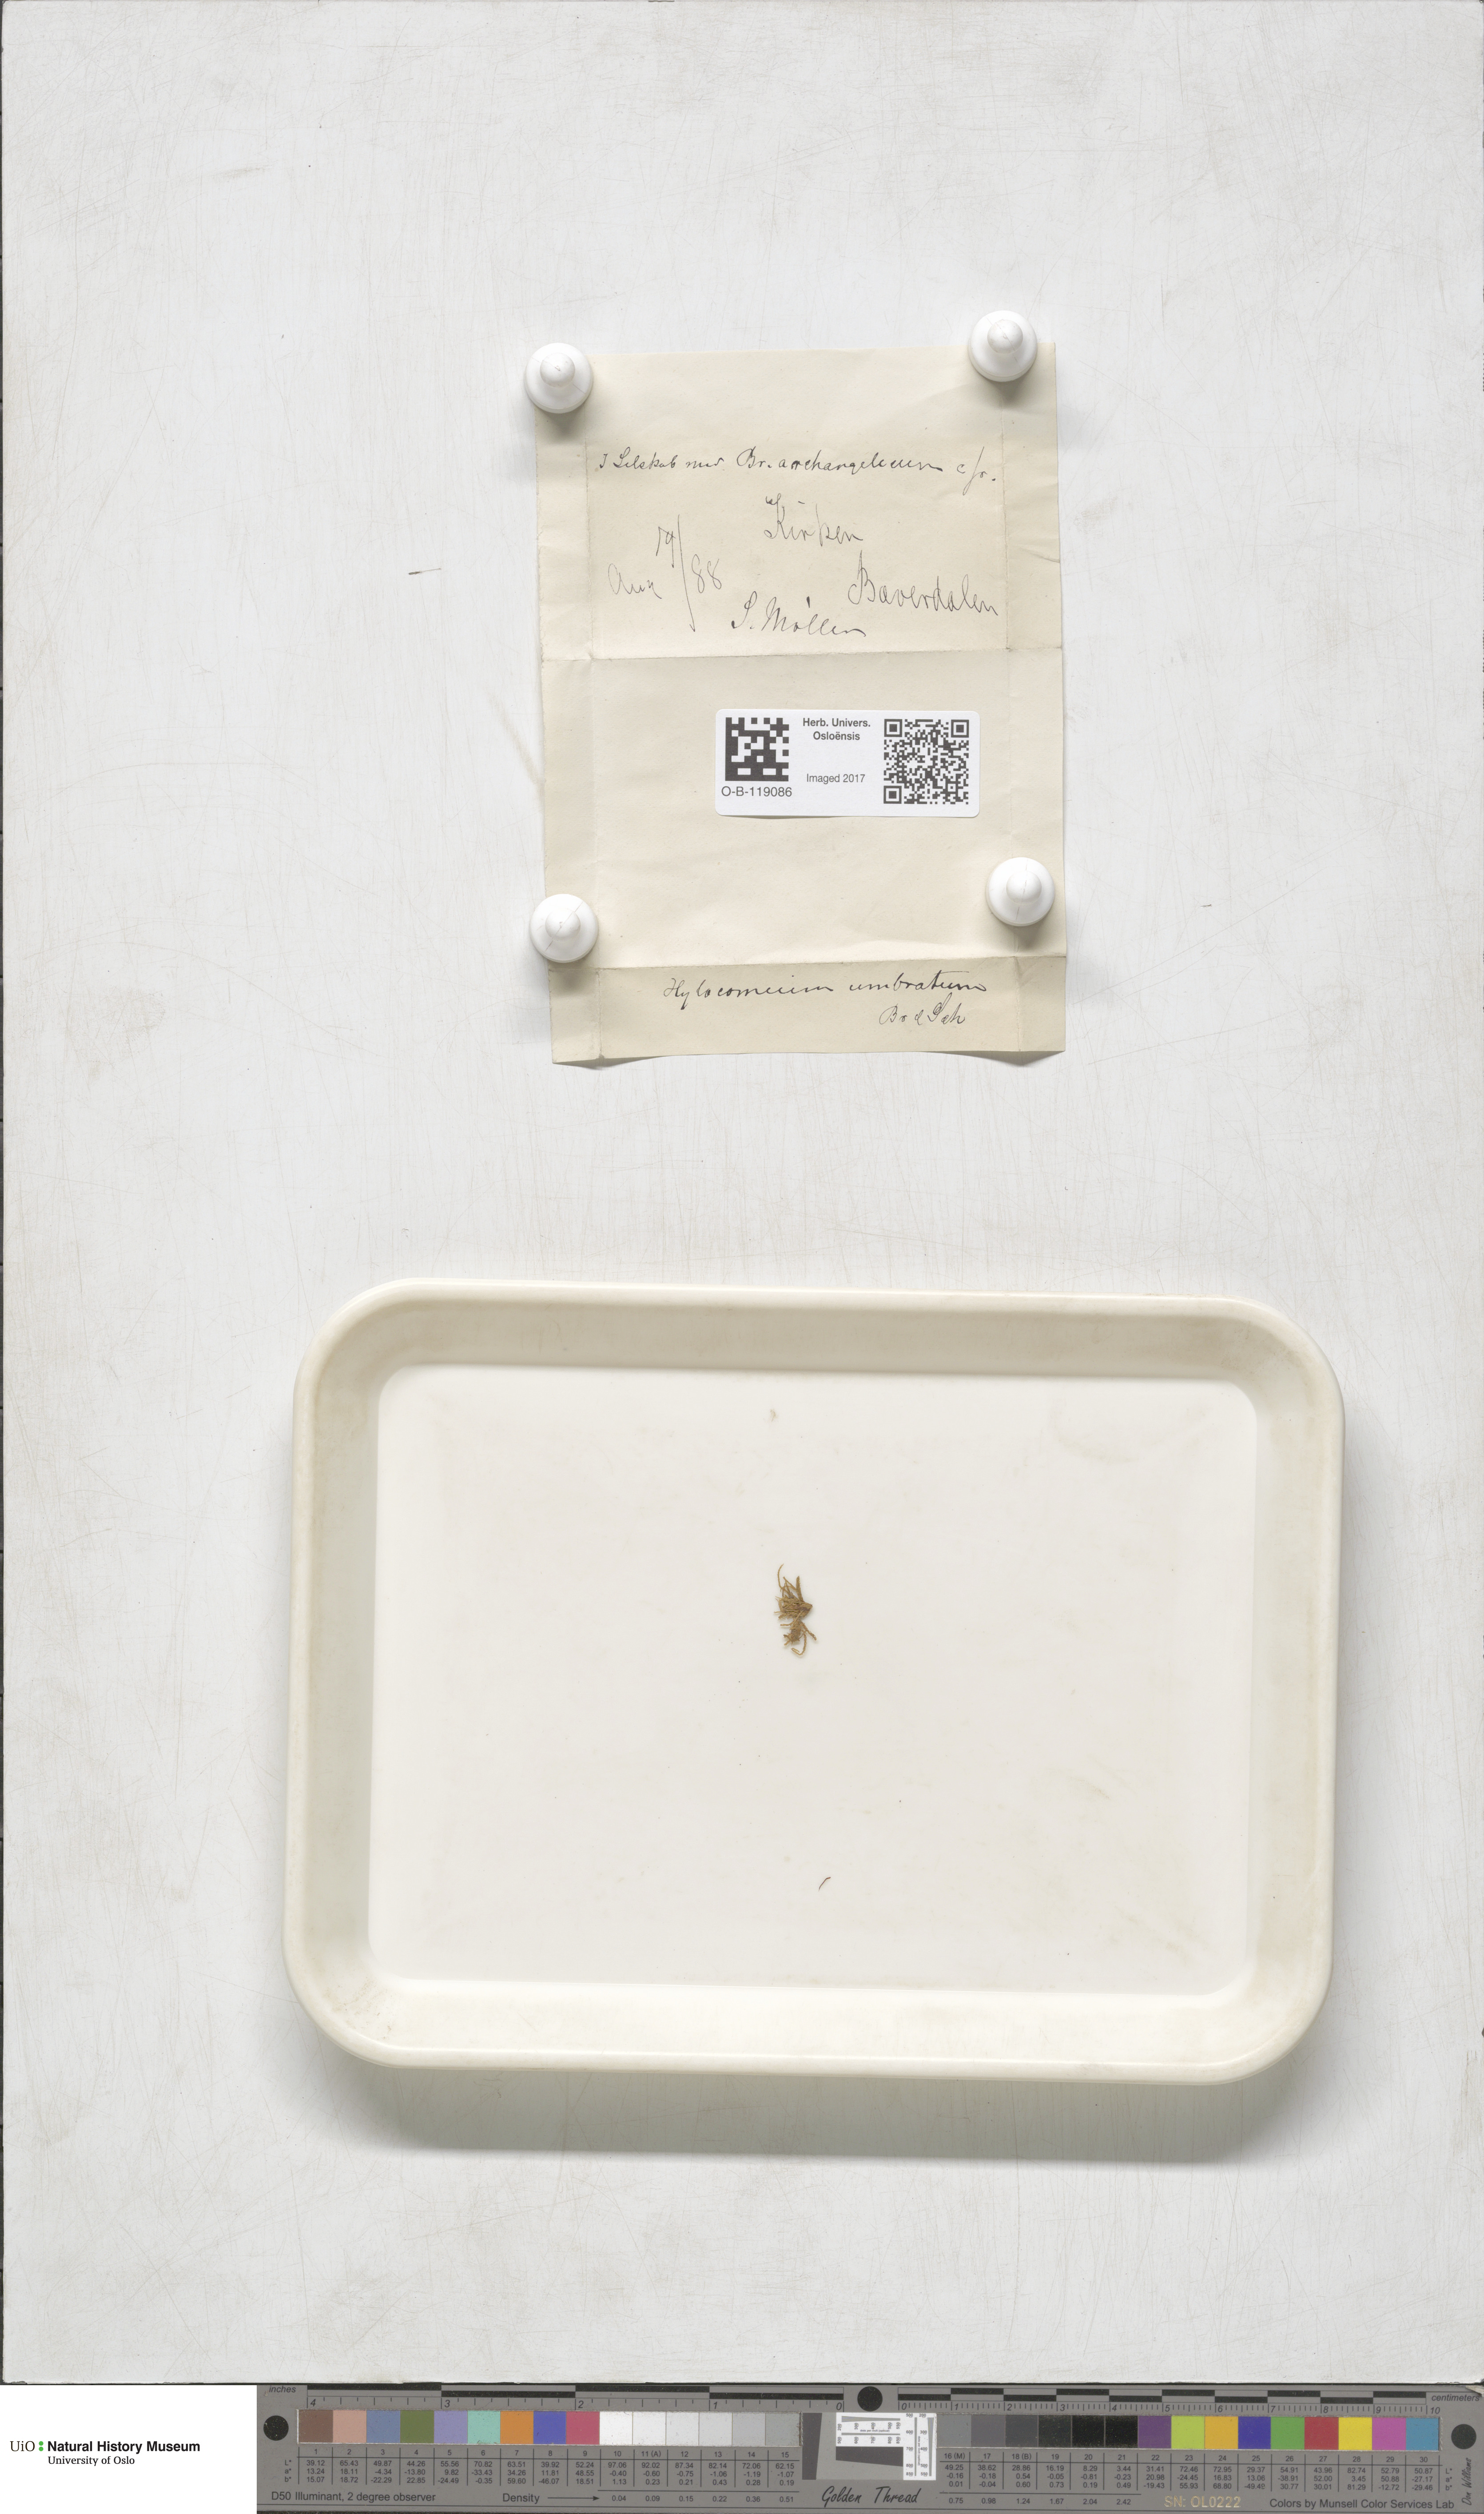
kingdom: Plantae
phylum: Bryophyta
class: Bryopsida
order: Hypnales
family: Hylocomiaceae
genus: Hylocomiastrum
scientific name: Hylocomiastrum umbratum
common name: Shaded woods moss
